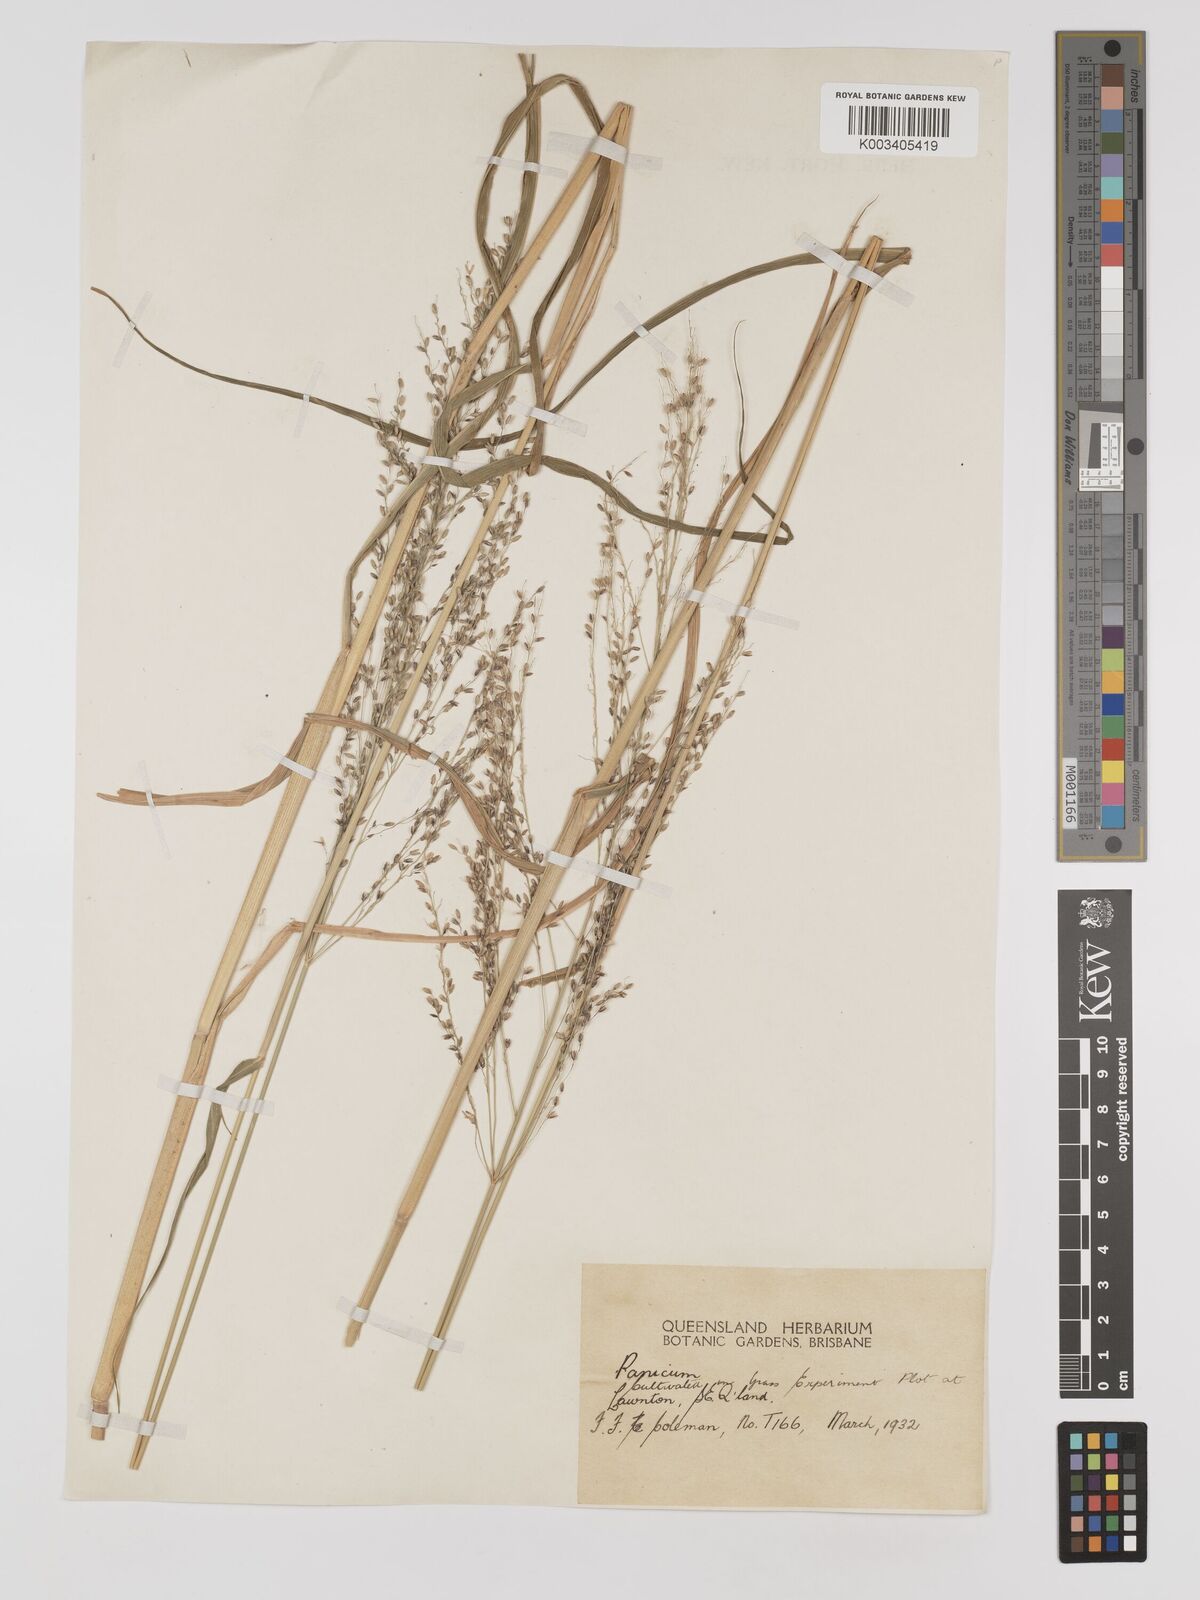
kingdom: Plantae
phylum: Tracheophyta
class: Liliopsida
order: Poales
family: Poaceae
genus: Megathyrsus
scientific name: Megathyrsus maximus
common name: Guineagrass
